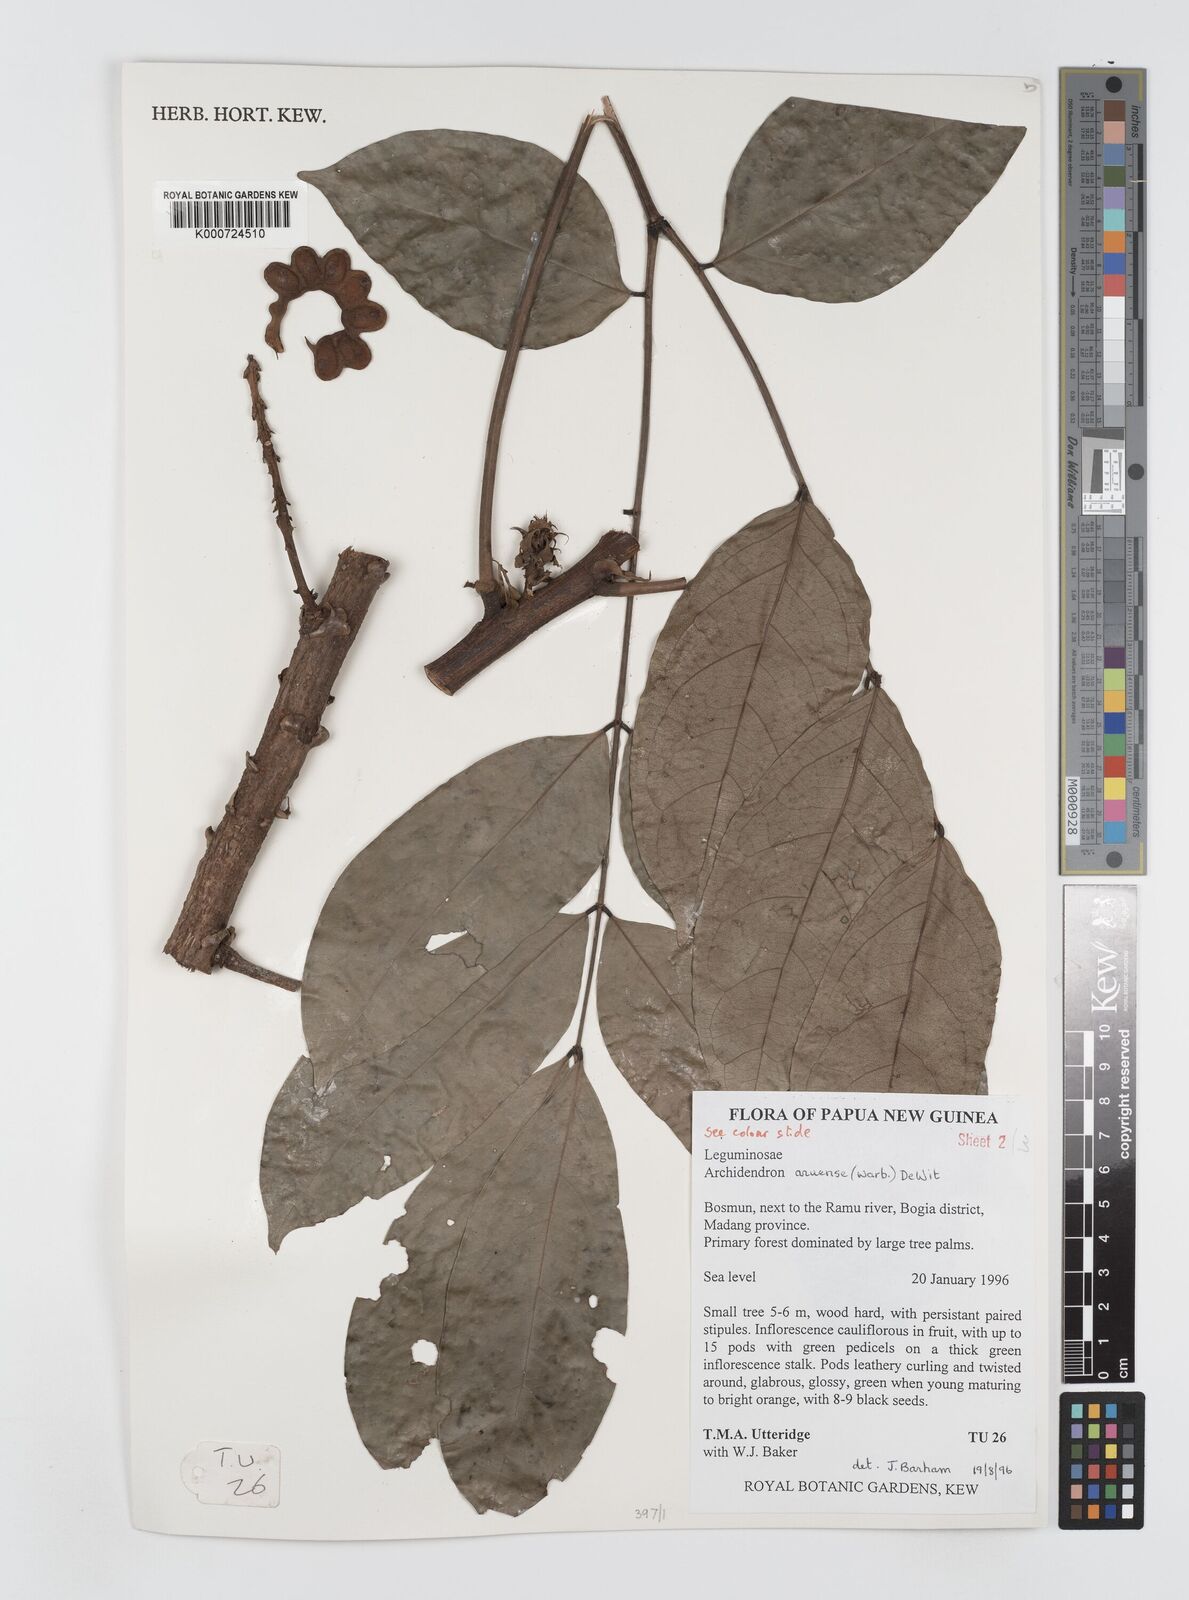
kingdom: Plantae
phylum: Tracheophyta
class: Magnoliopsida
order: Fabales
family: Fabaceae
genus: Archidendron
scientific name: Archidendron aruense
